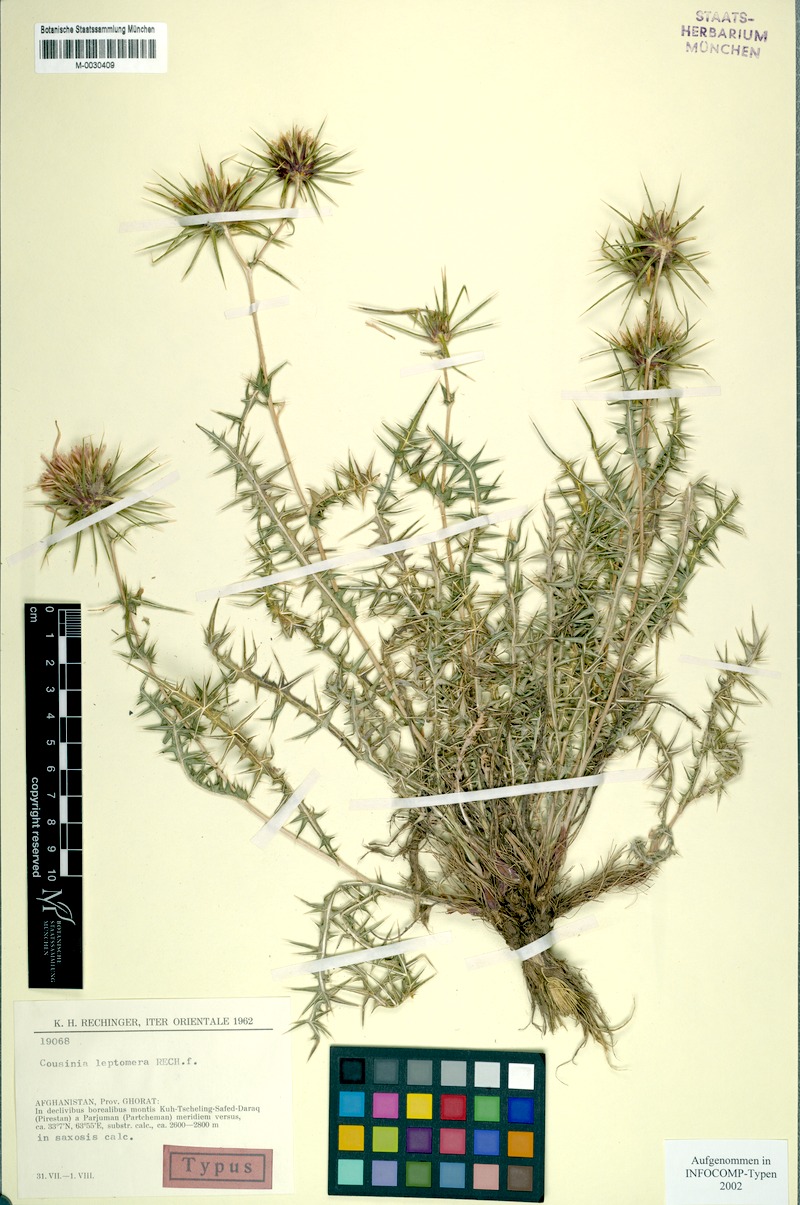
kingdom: Plantae
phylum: Tracheophyta
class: Magnoliopsida
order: Asterales
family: Asteraceae
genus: Cousinia
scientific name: Cousinia leptomera
